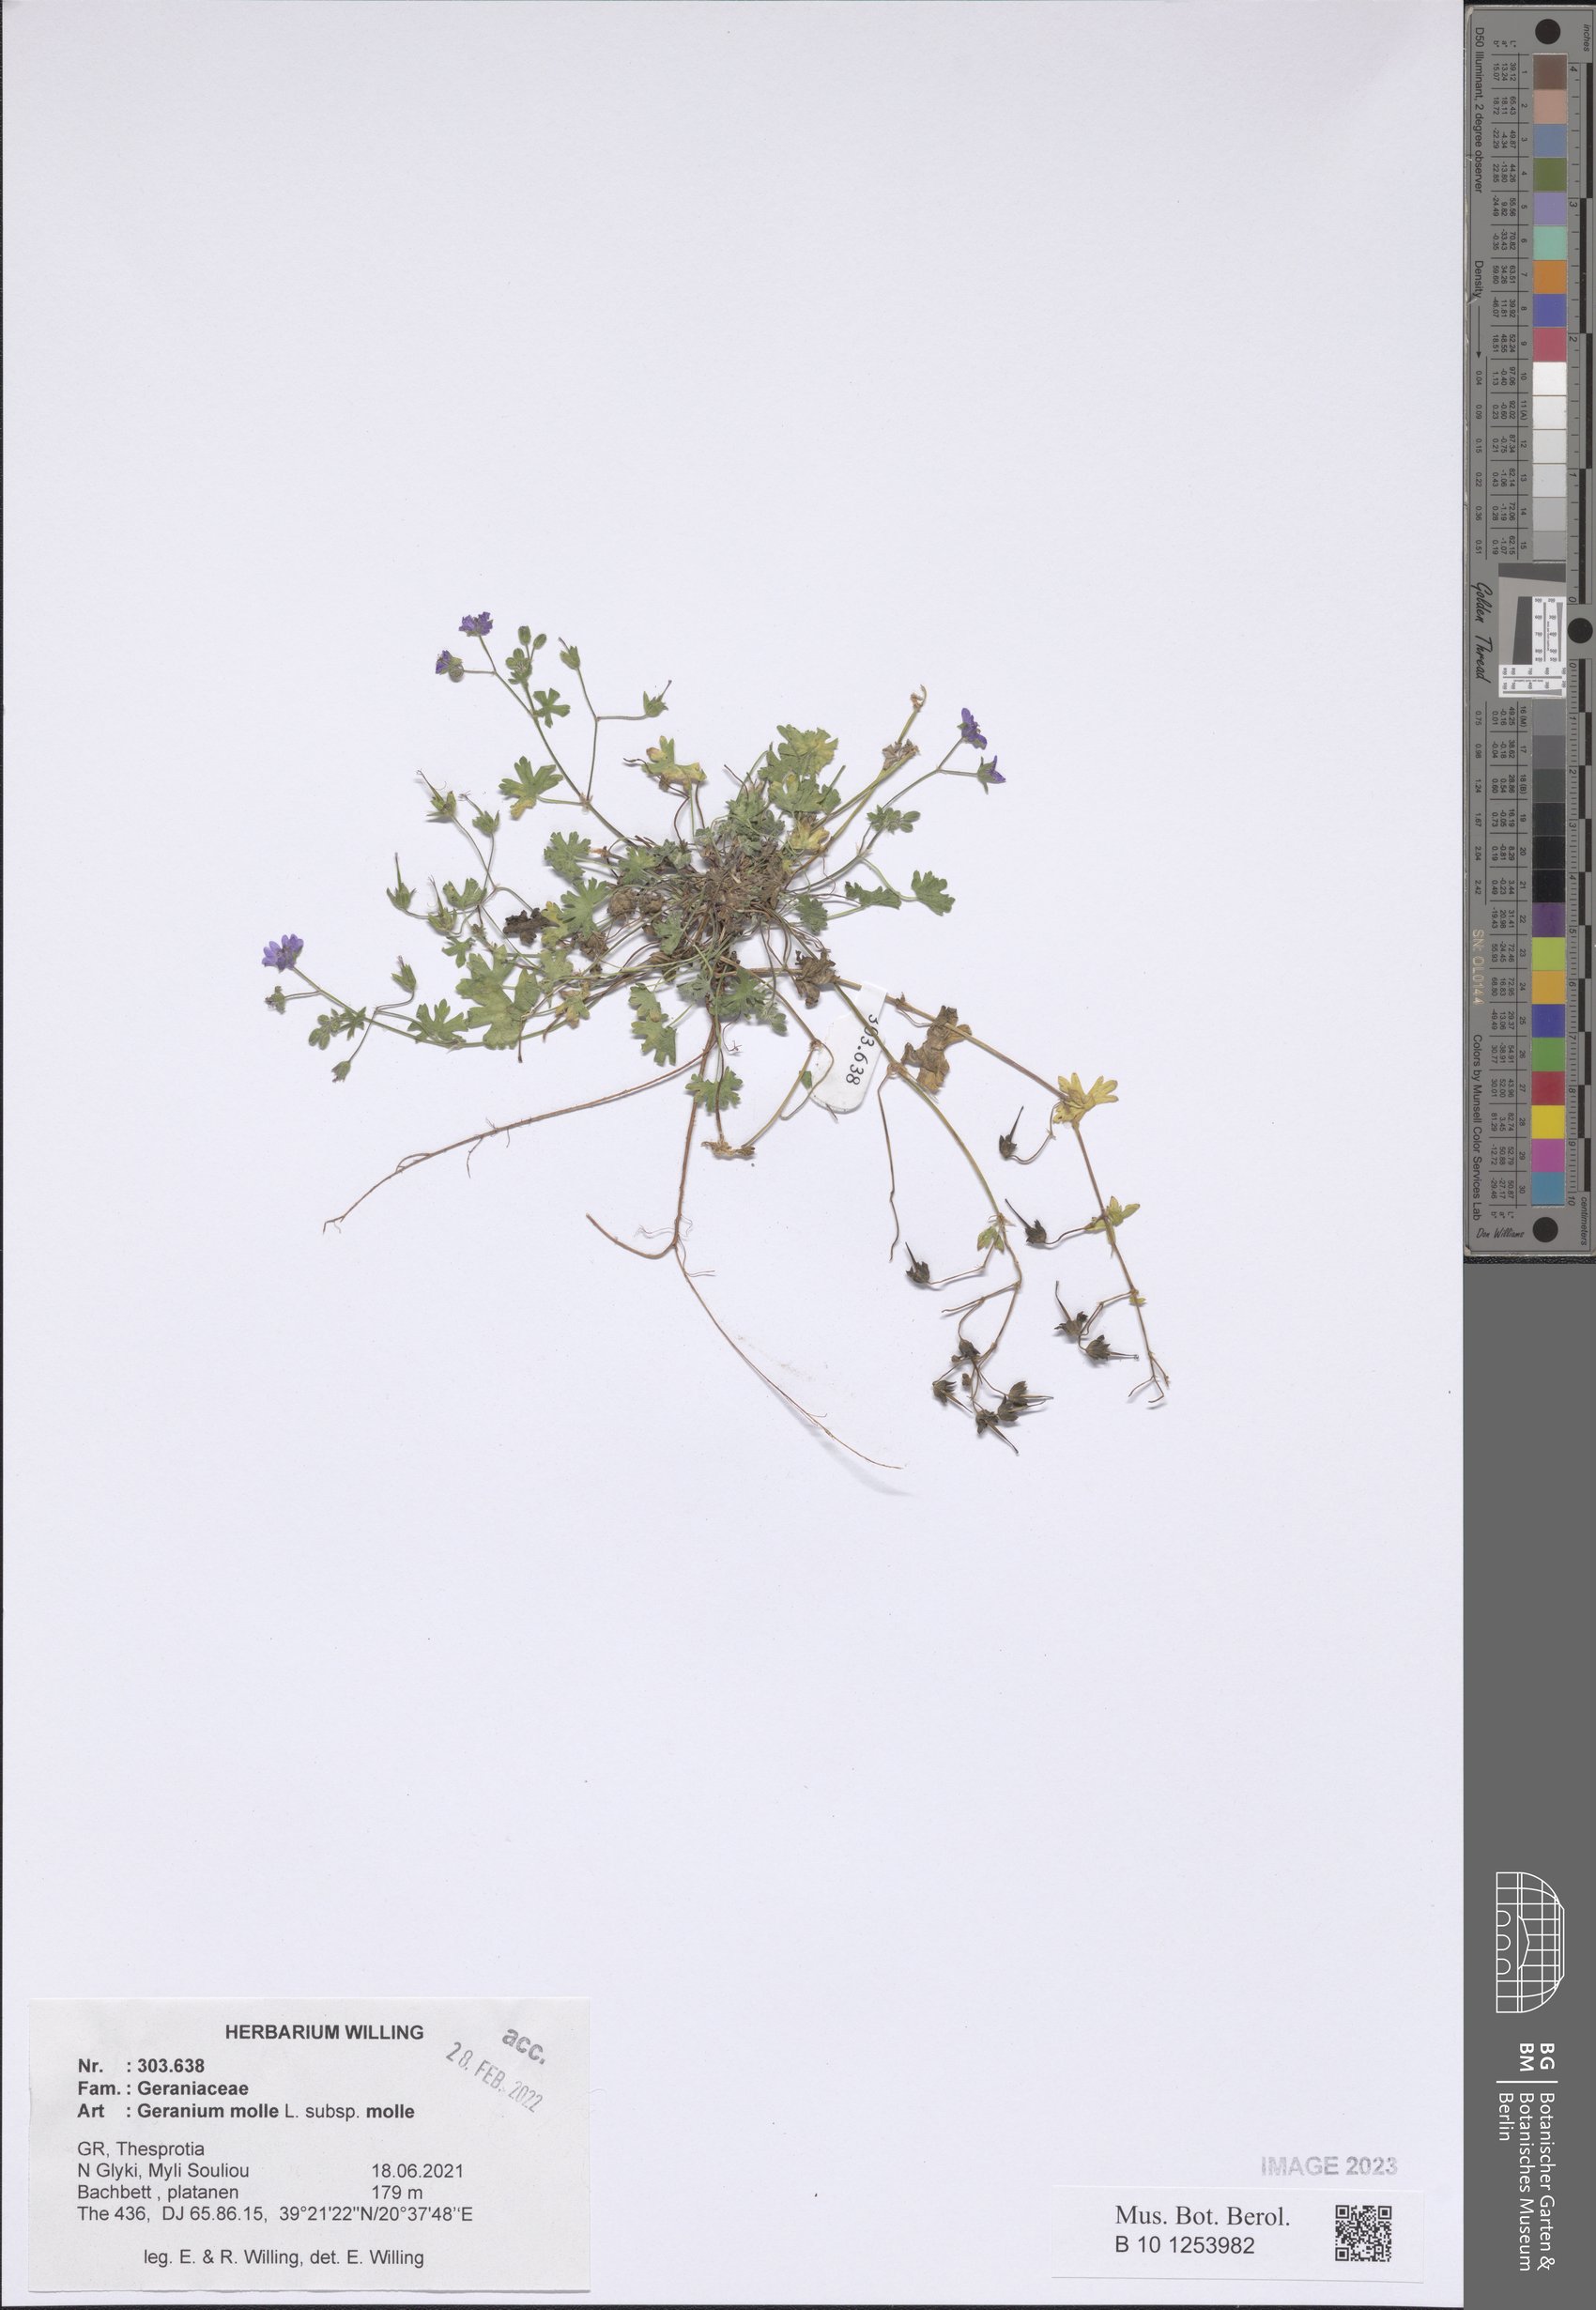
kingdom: Plantae
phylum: Tracheophyta
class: Magnoliopsida
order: Geraniales
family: Geraniaceae
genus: Geranium
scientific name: Geranium molle
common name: Dove's-foot crane's-bill
